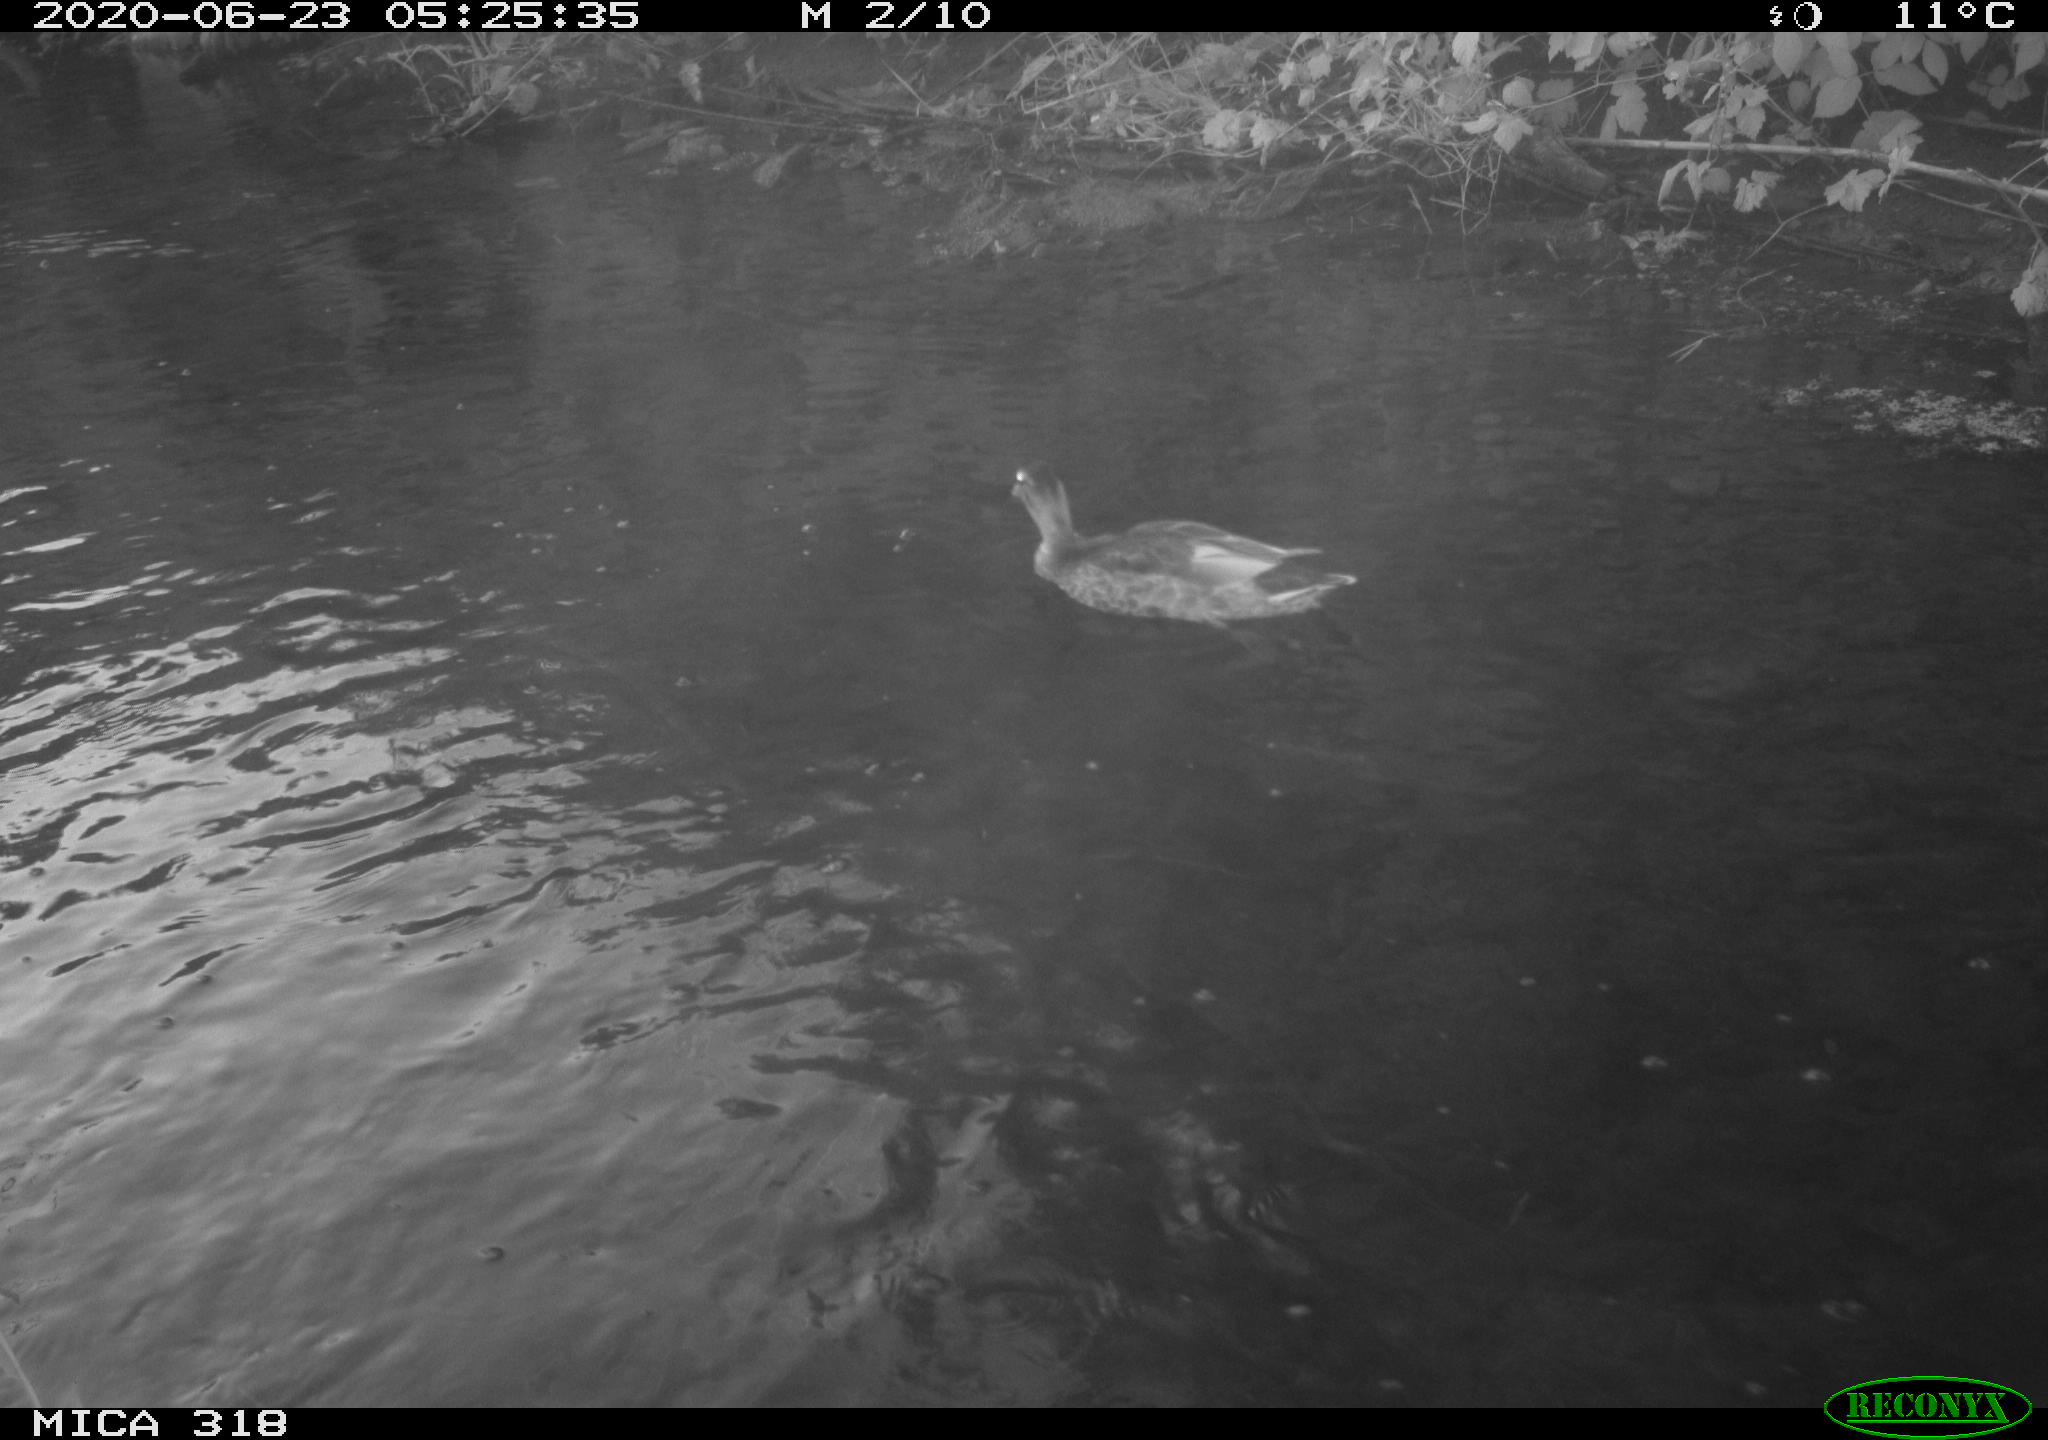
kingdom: Animalia
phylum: Chordata
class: Aves
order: Anseriformes
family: Anatidae
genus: Anas
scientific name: Anas platyrhynchos
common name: Mallard
